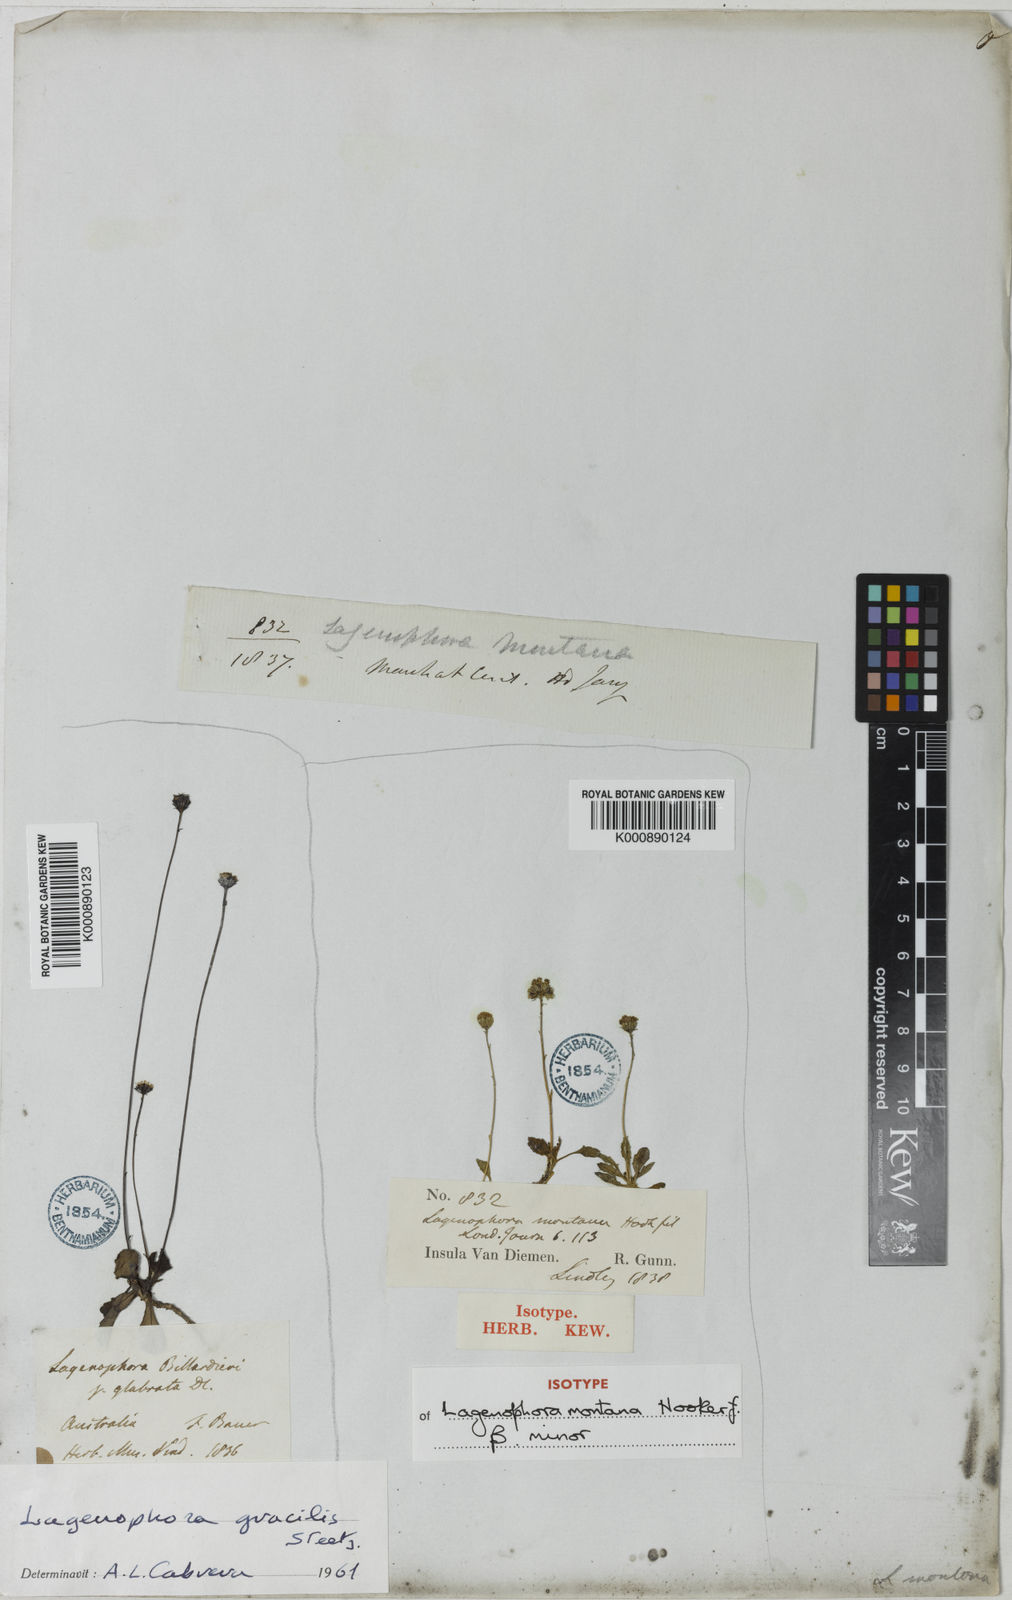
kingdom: Plantae
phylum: Tracheophyta
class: Magnoliopsida
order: Asterales
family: Asteraceae
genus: Lagenophora
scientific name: Lagenophora stipitata
